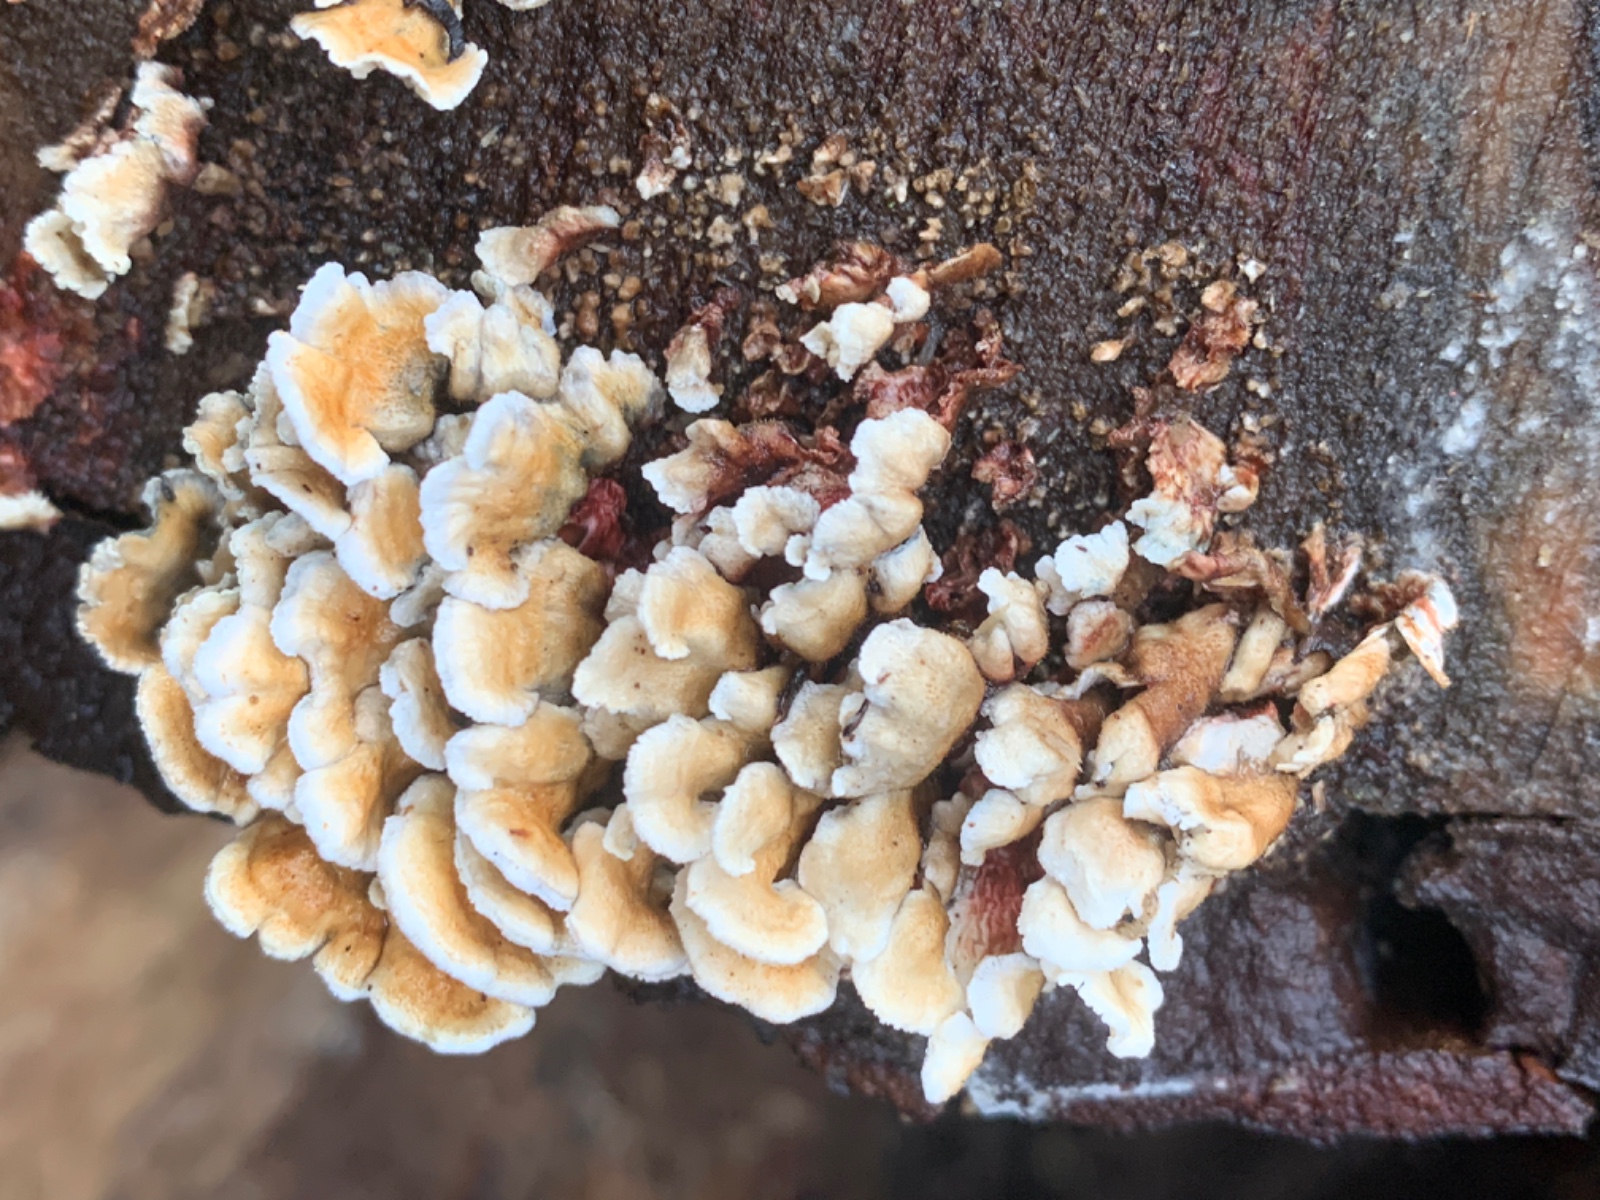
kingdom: Fungi
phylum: Basidiomycota
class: Agaricomycetes
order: Amylocorticiales
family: Amylocorticiaceae
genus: Plicaturopsis
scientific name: Plicaturopsis crispa
